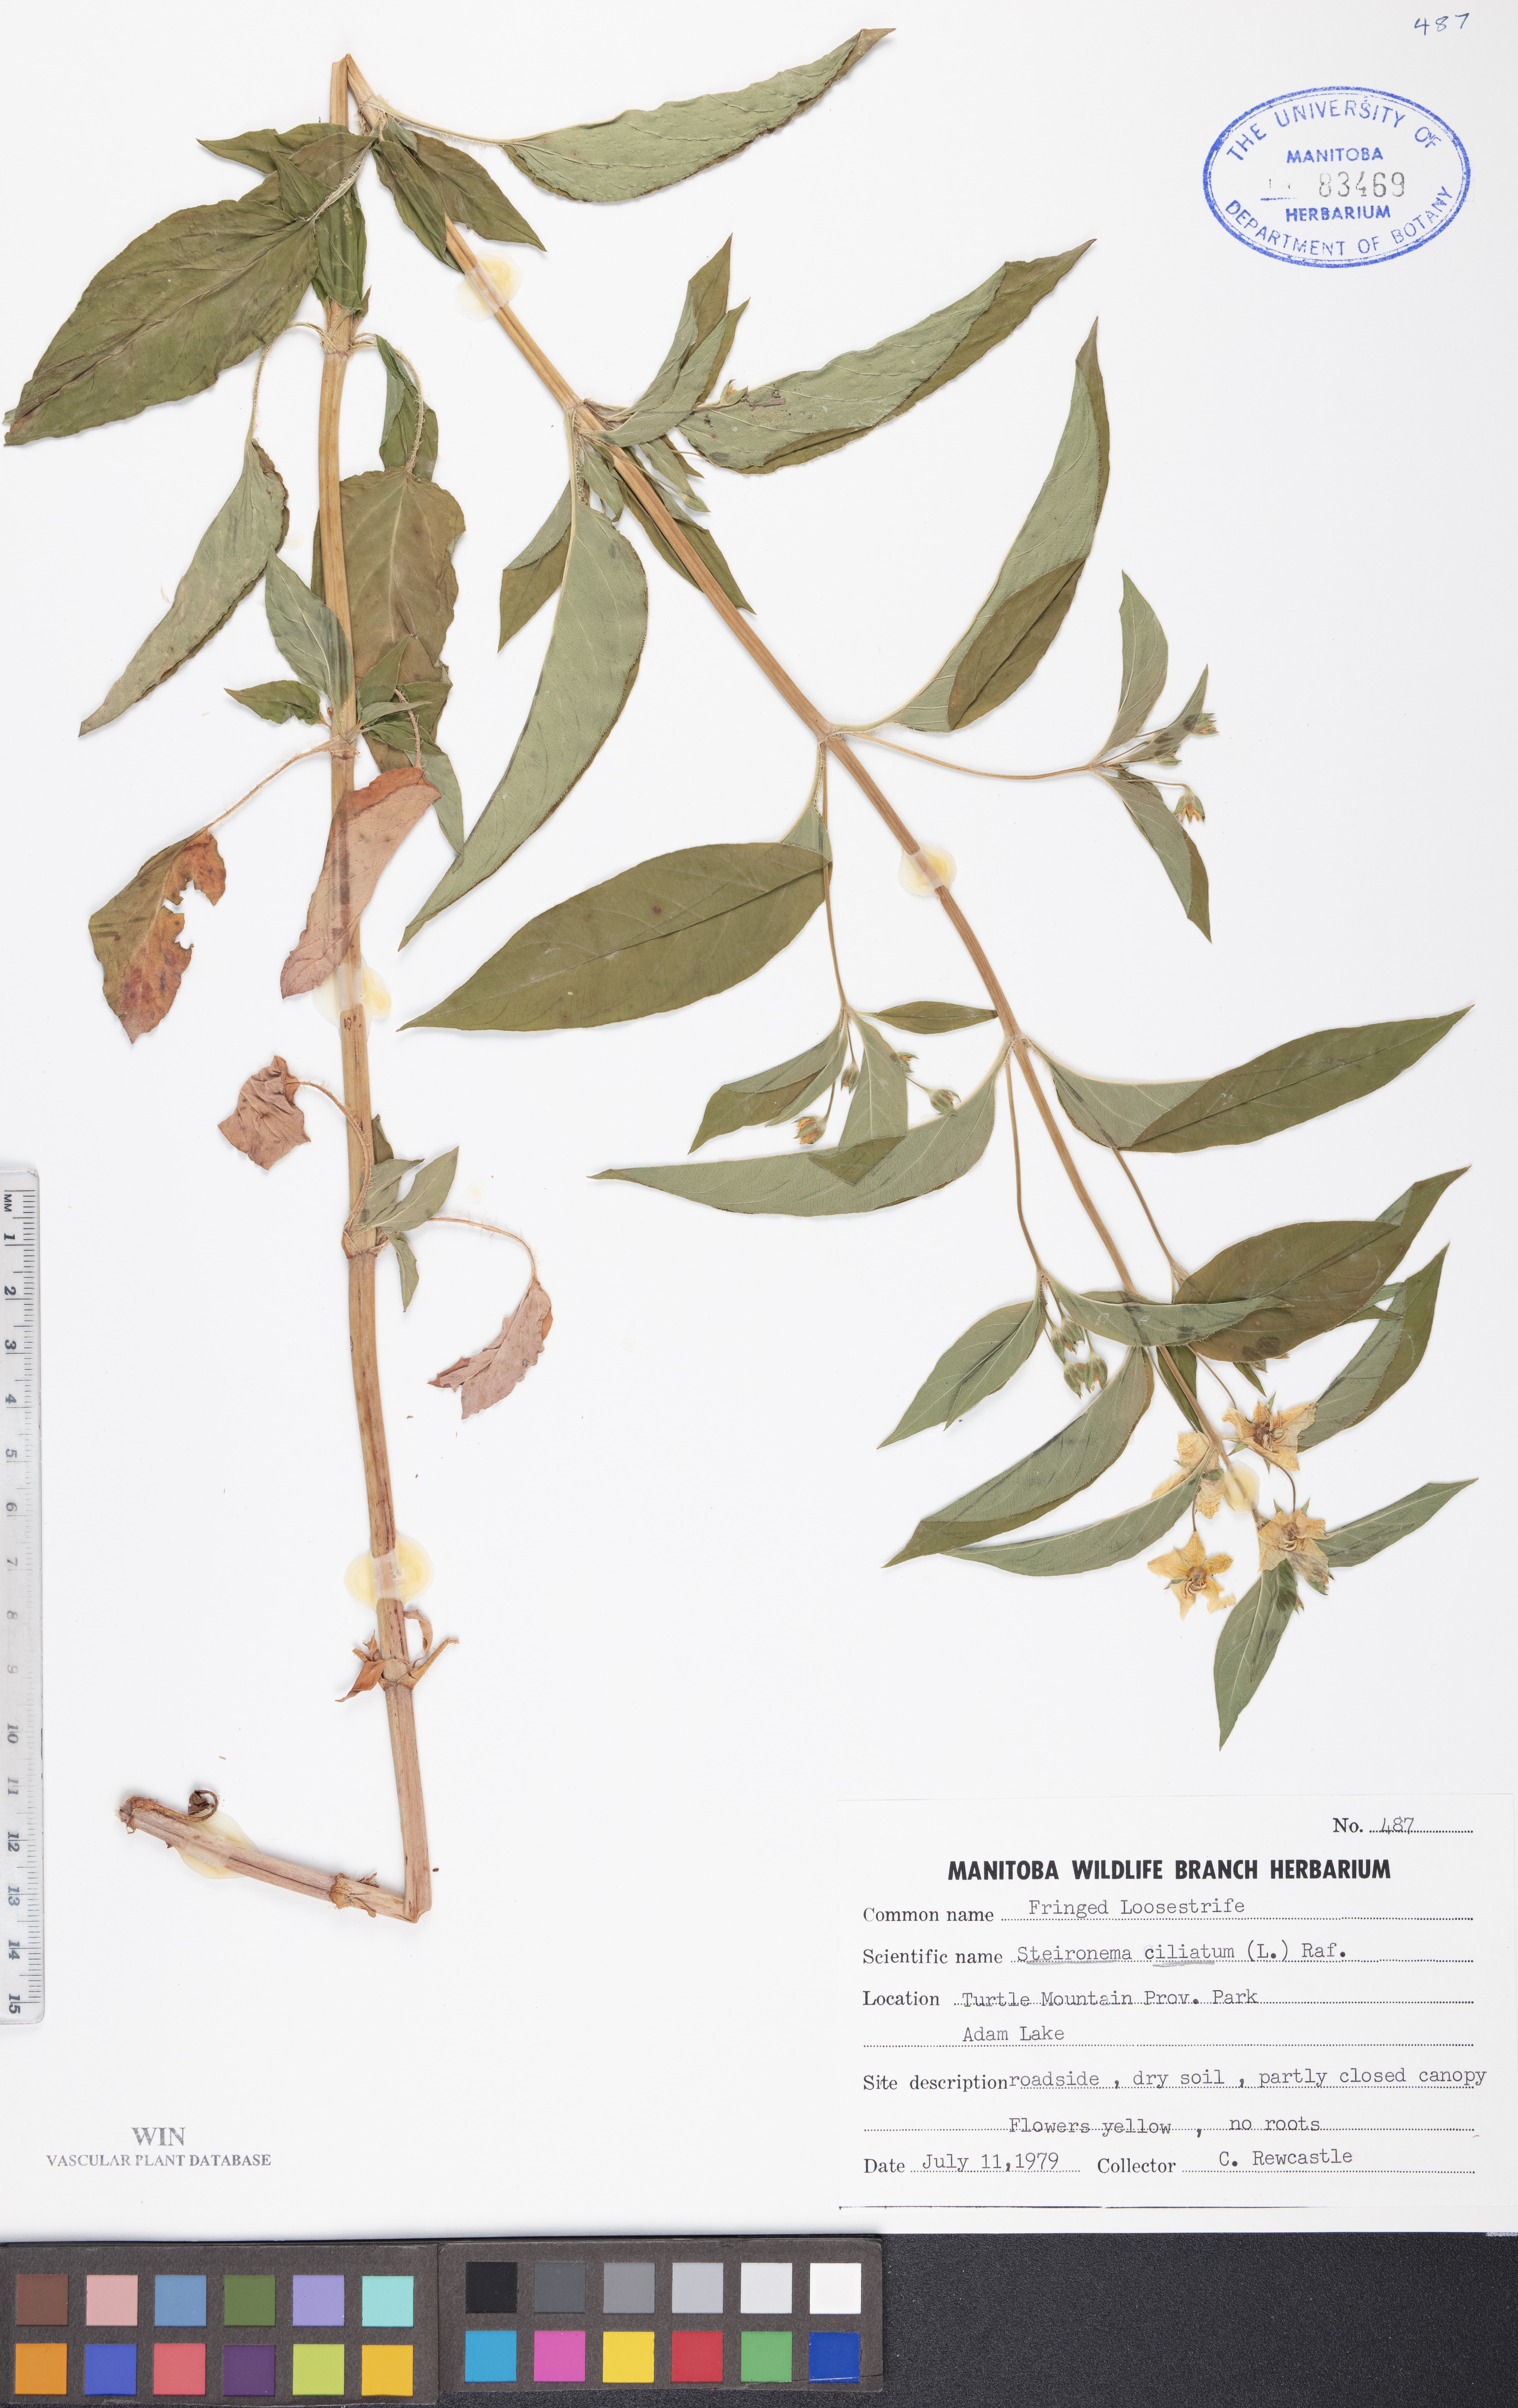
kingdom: Plantae
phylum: Tracheophyta
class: Magnoliopsida
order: Ericales
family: Primulaceae
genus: Lysimachia
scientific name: Lysimachia ciliata
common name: Fringed loosestrife
